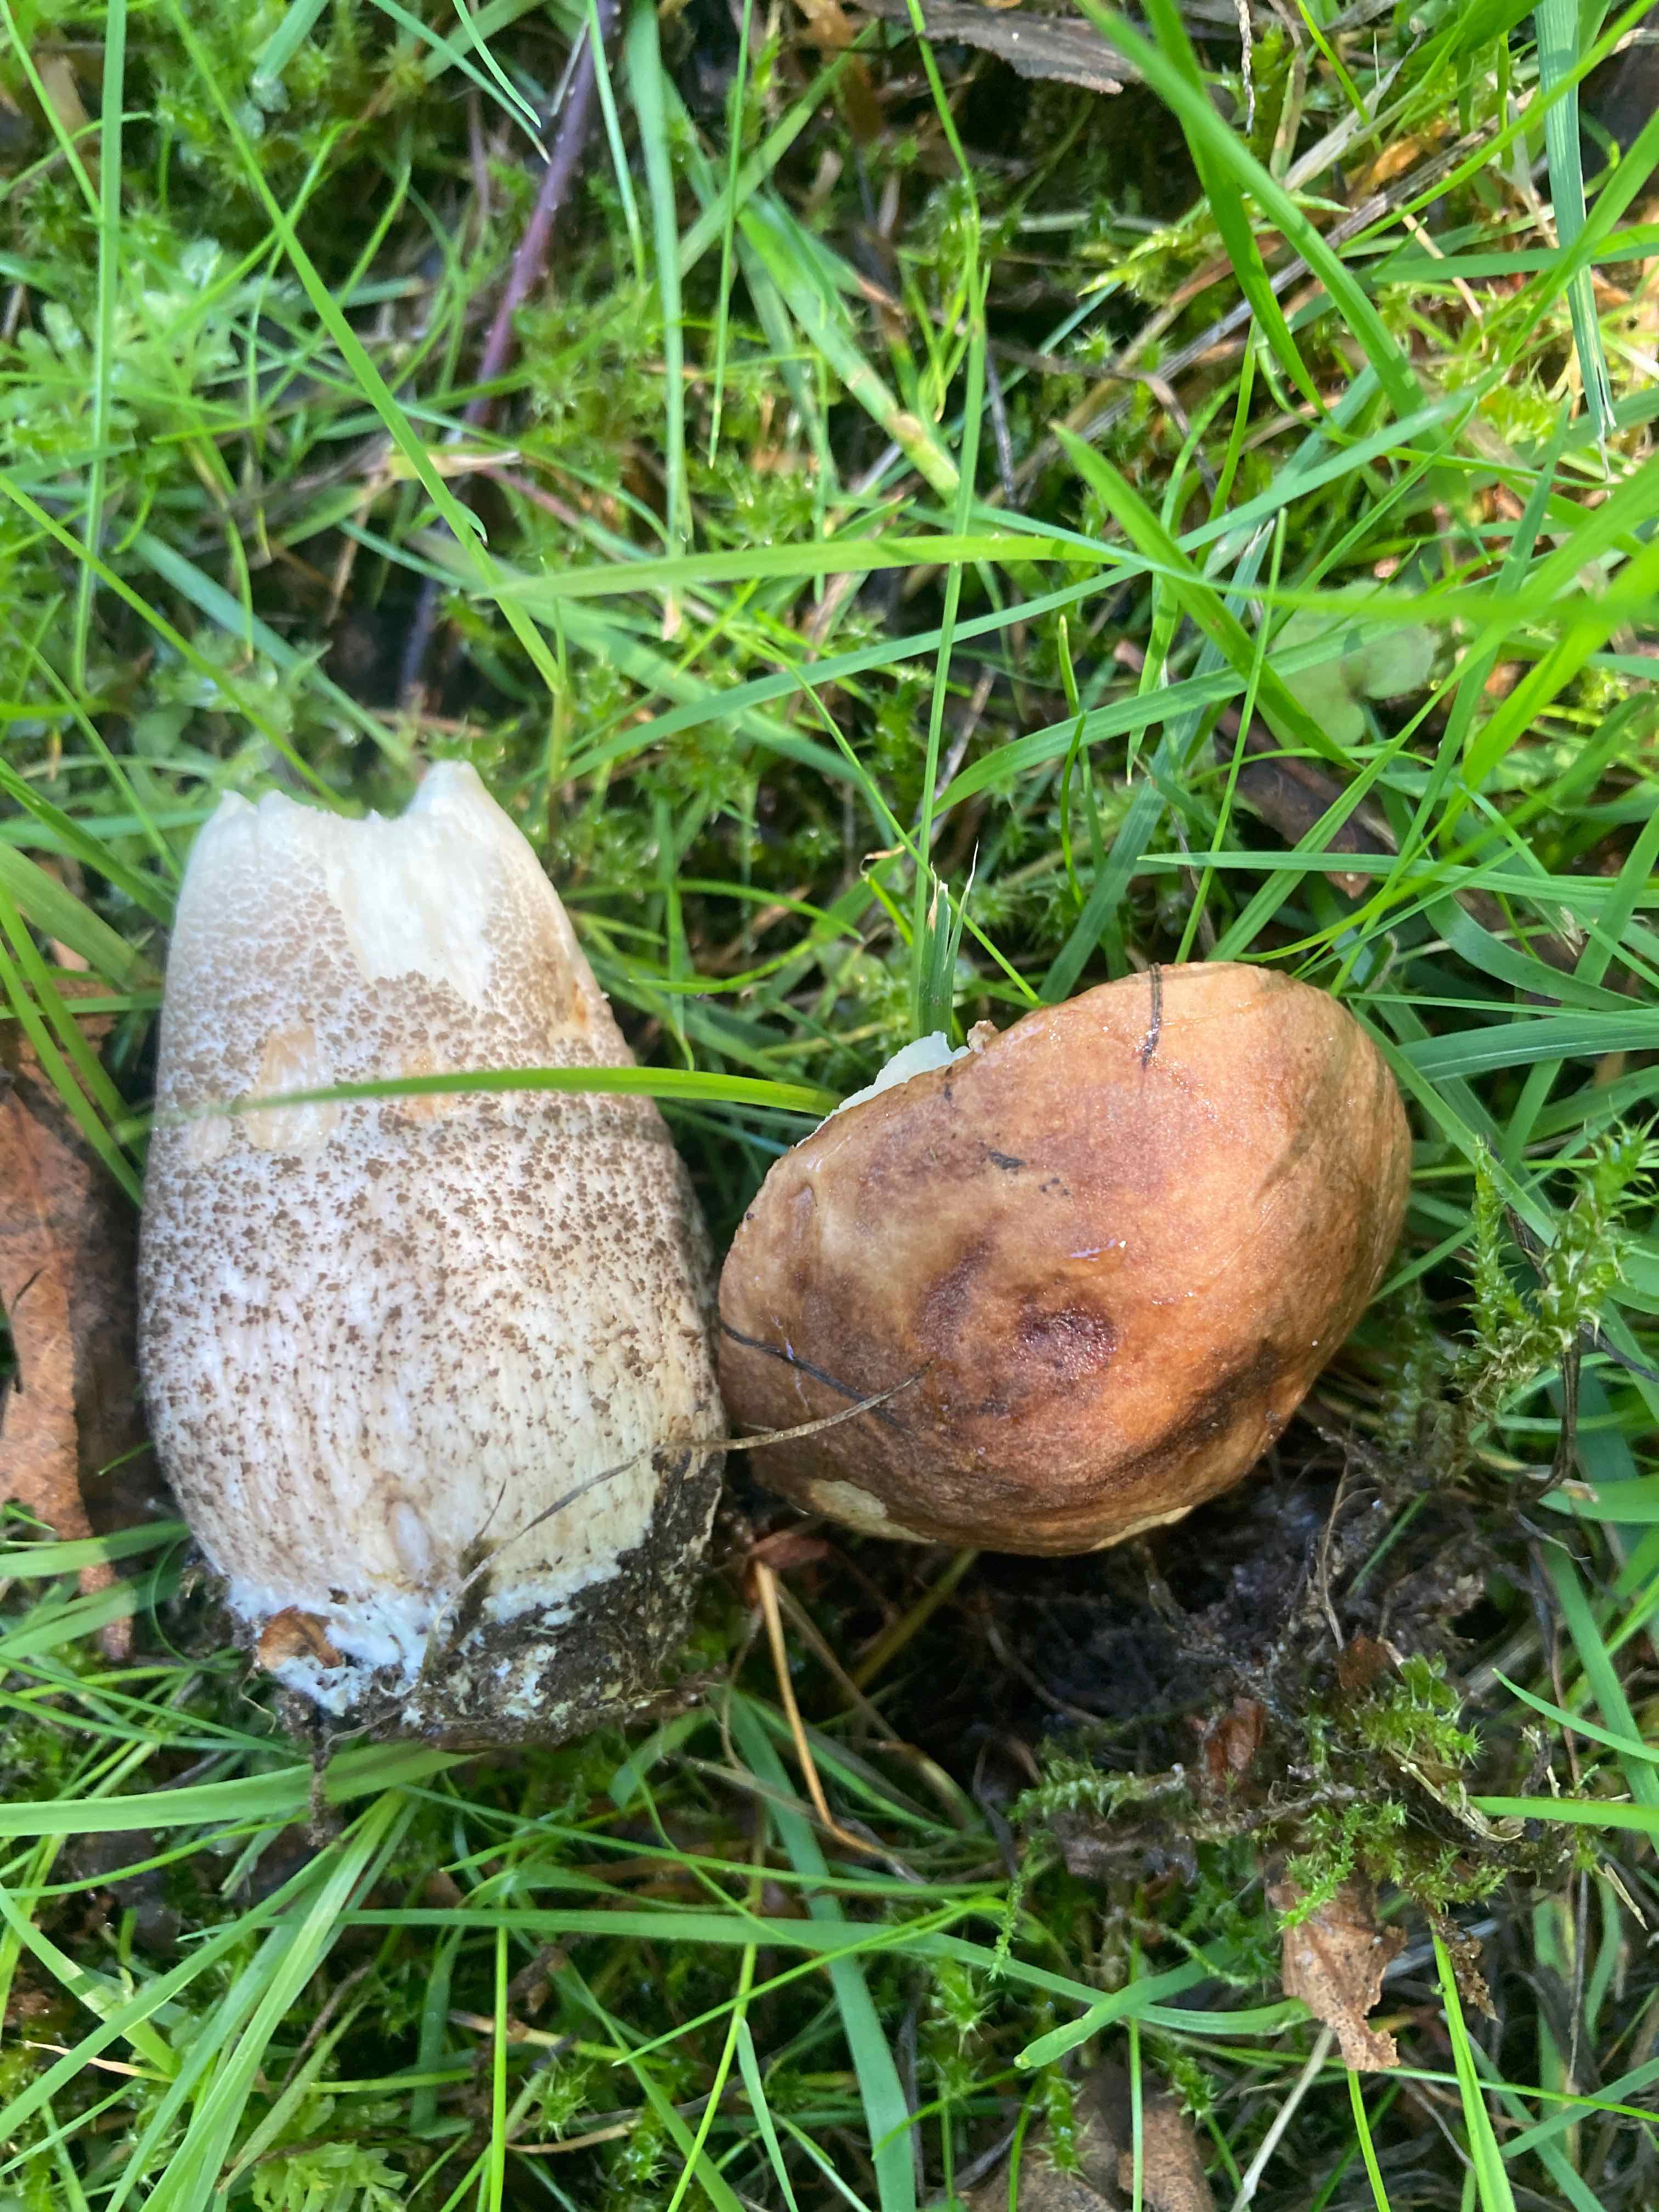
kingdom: Fungi
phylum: Basidiomycota
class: Agaricomycetes
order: Boletales
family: Boletaceae
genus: Leccinum
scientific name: Leccinum scabrum
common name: brun skælrørhat
